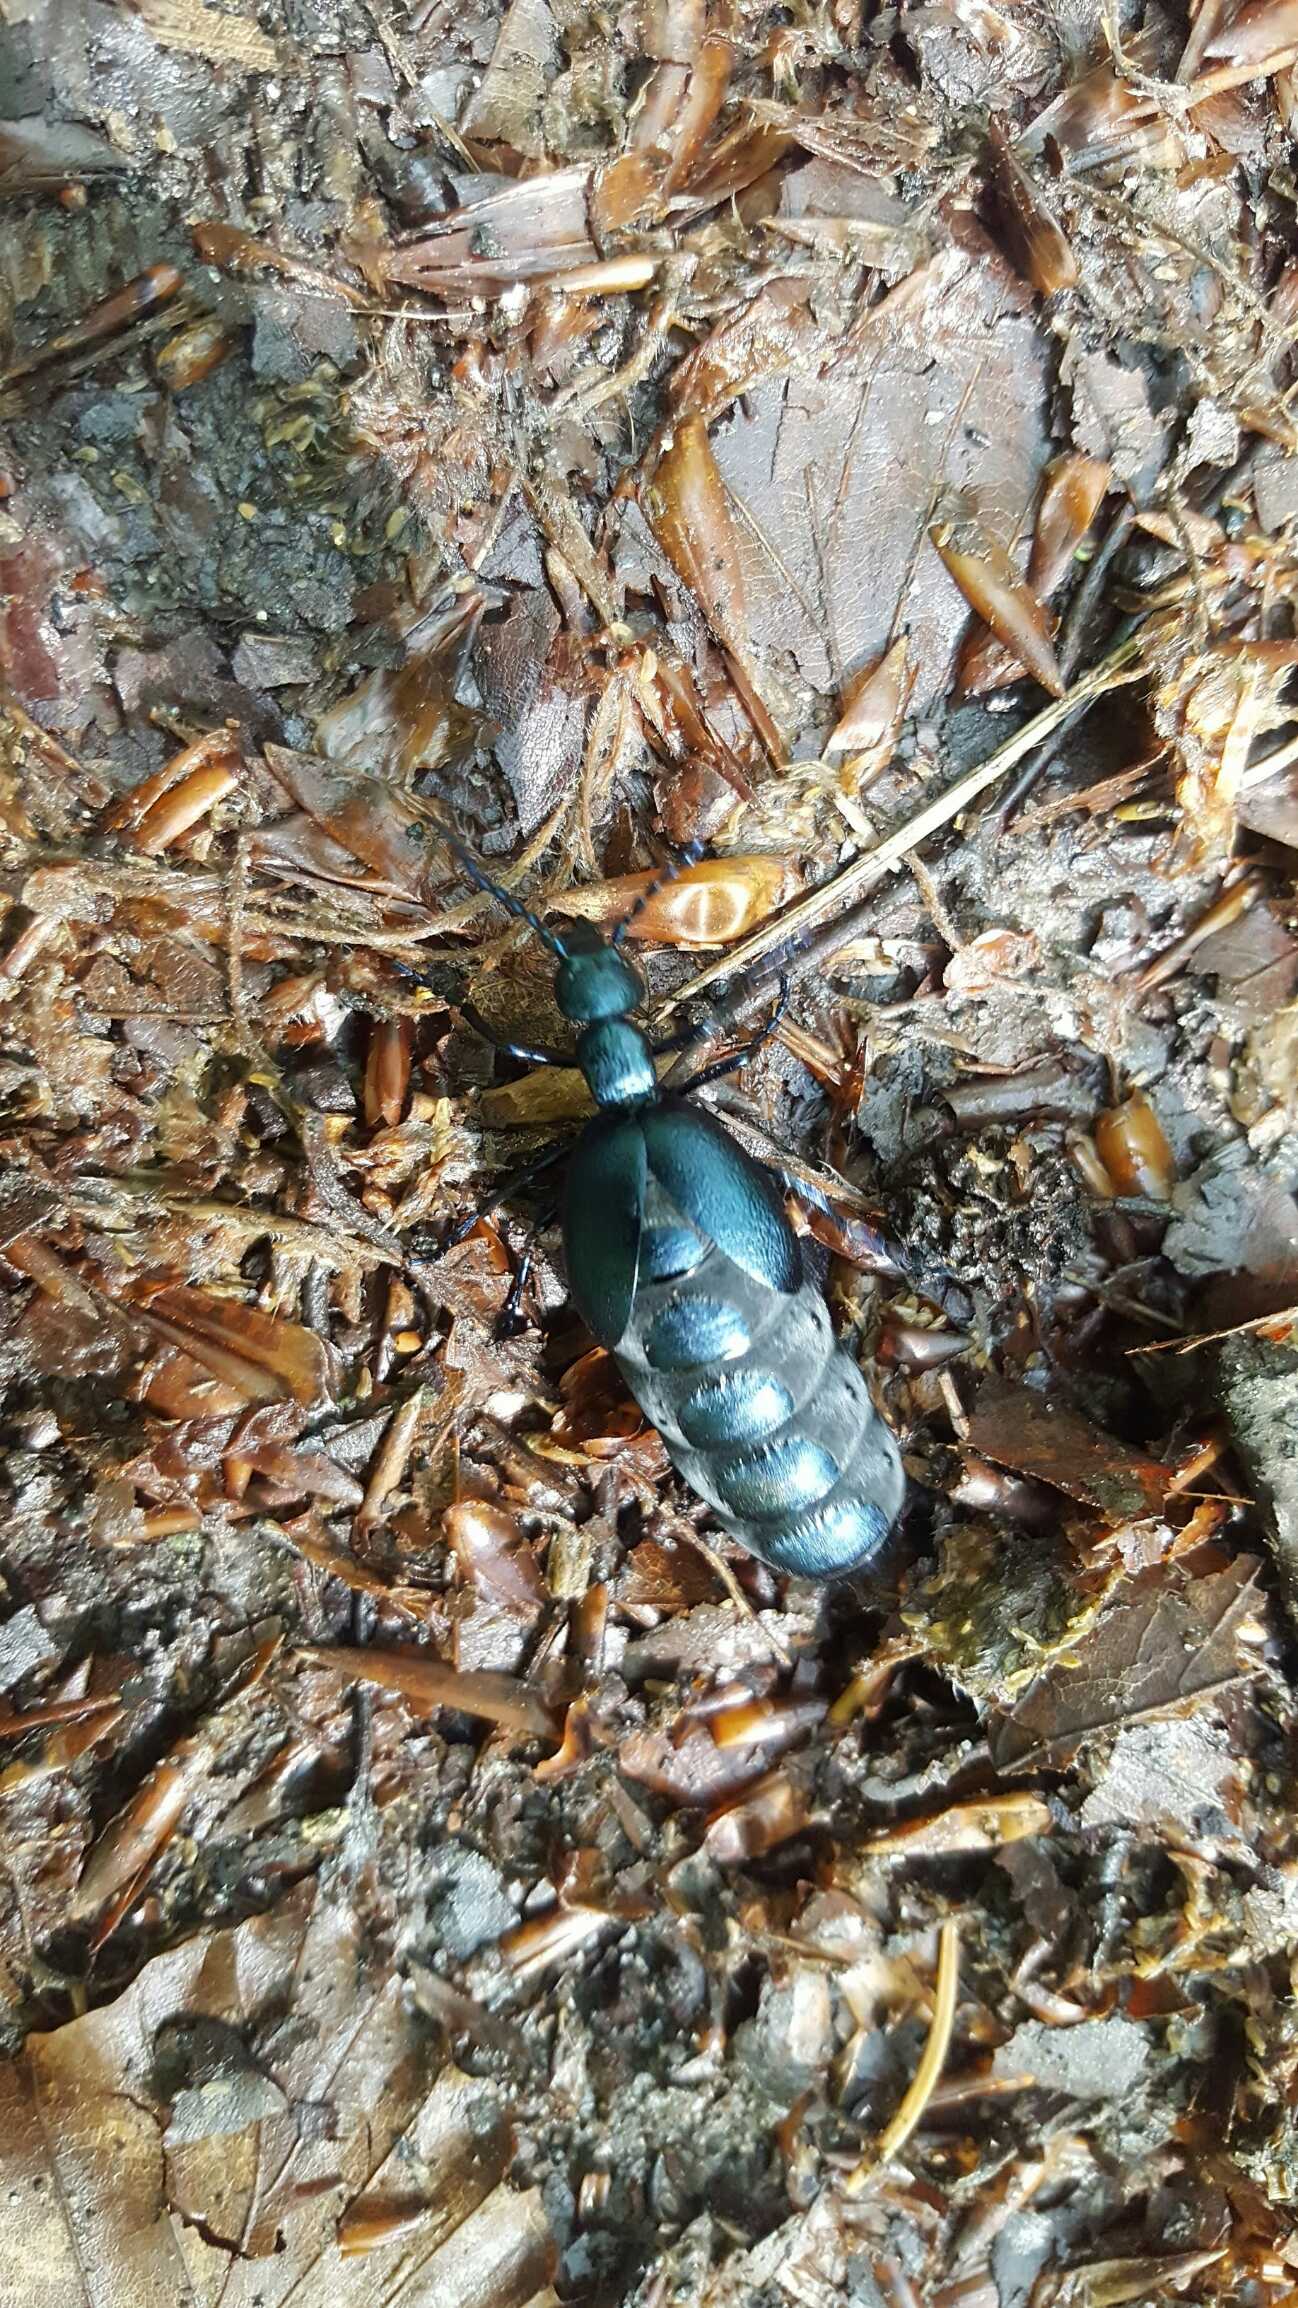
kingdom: Animalia
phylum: Arthropoda
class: Insecta
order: Coleoptera
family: Meloidae
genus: Meloe
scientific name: Meloe violaceus
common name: Blå oliebille
